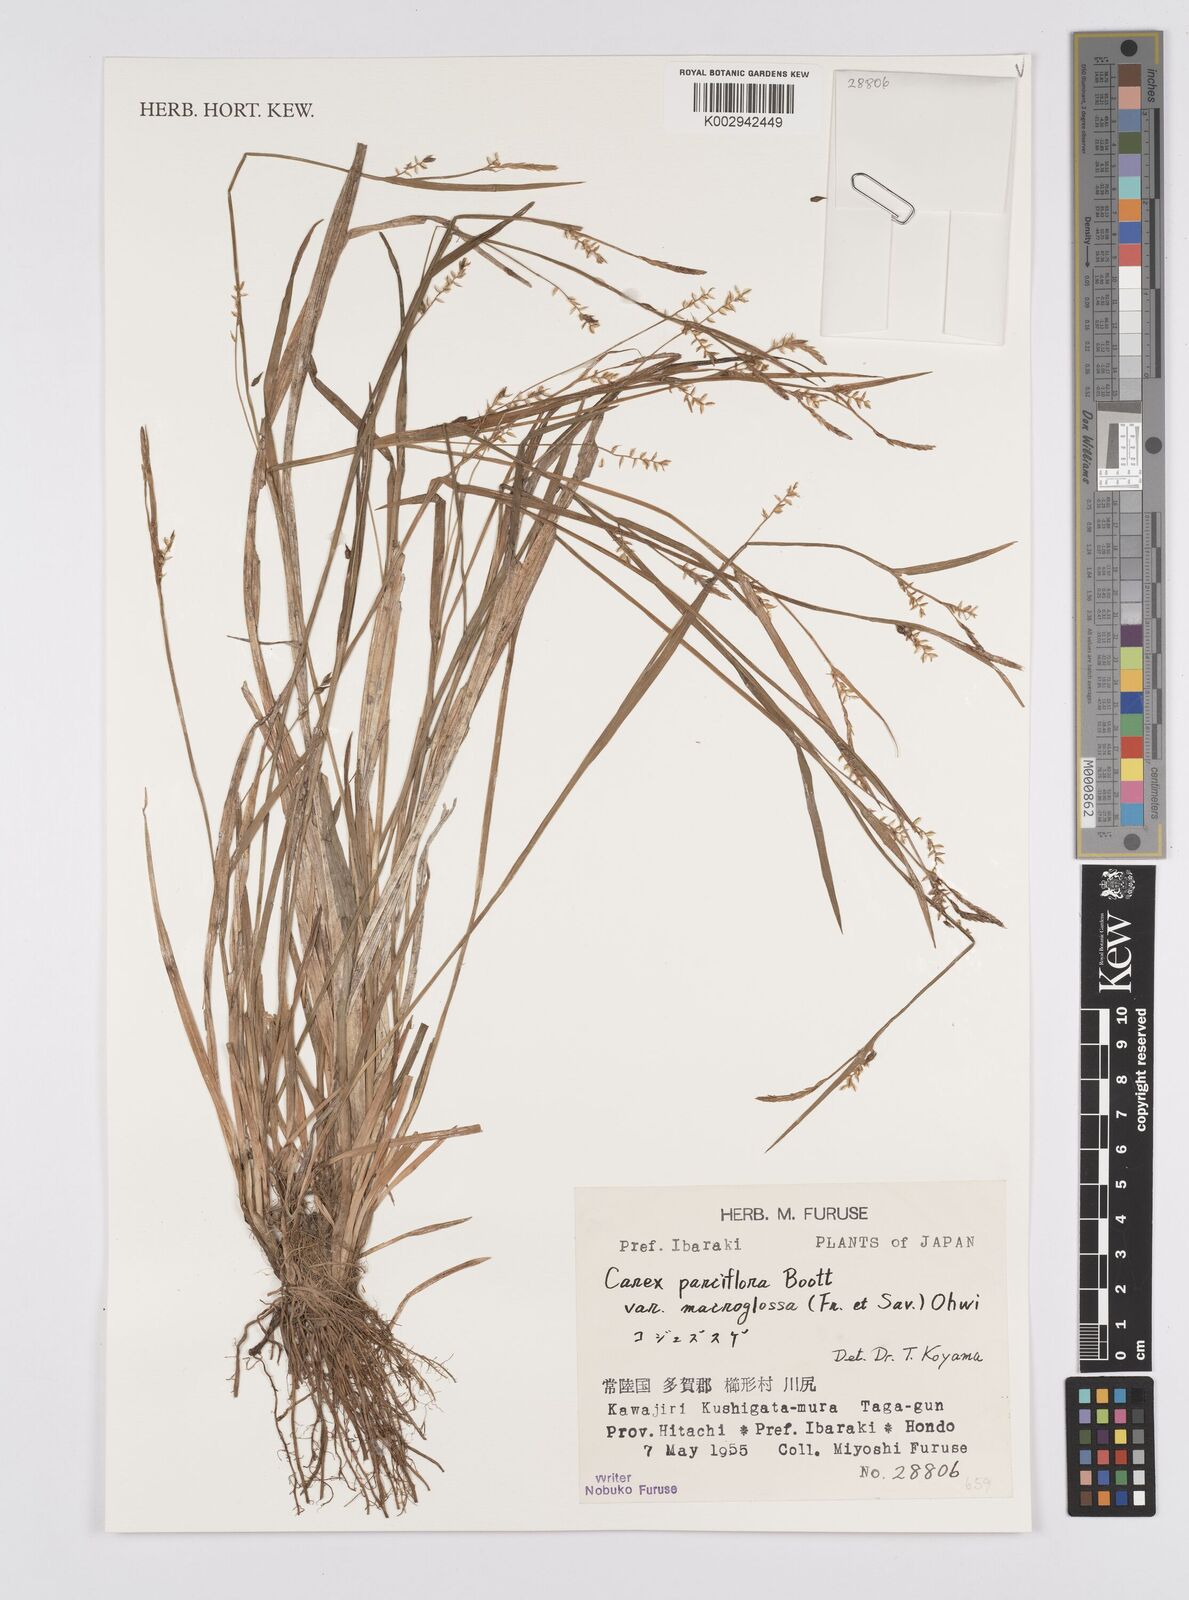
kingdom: Plantae
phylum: Tracheophyta
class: Liliopsida
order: Poales
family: Cyperaceae
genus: Carex
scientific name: Carex jackiana
